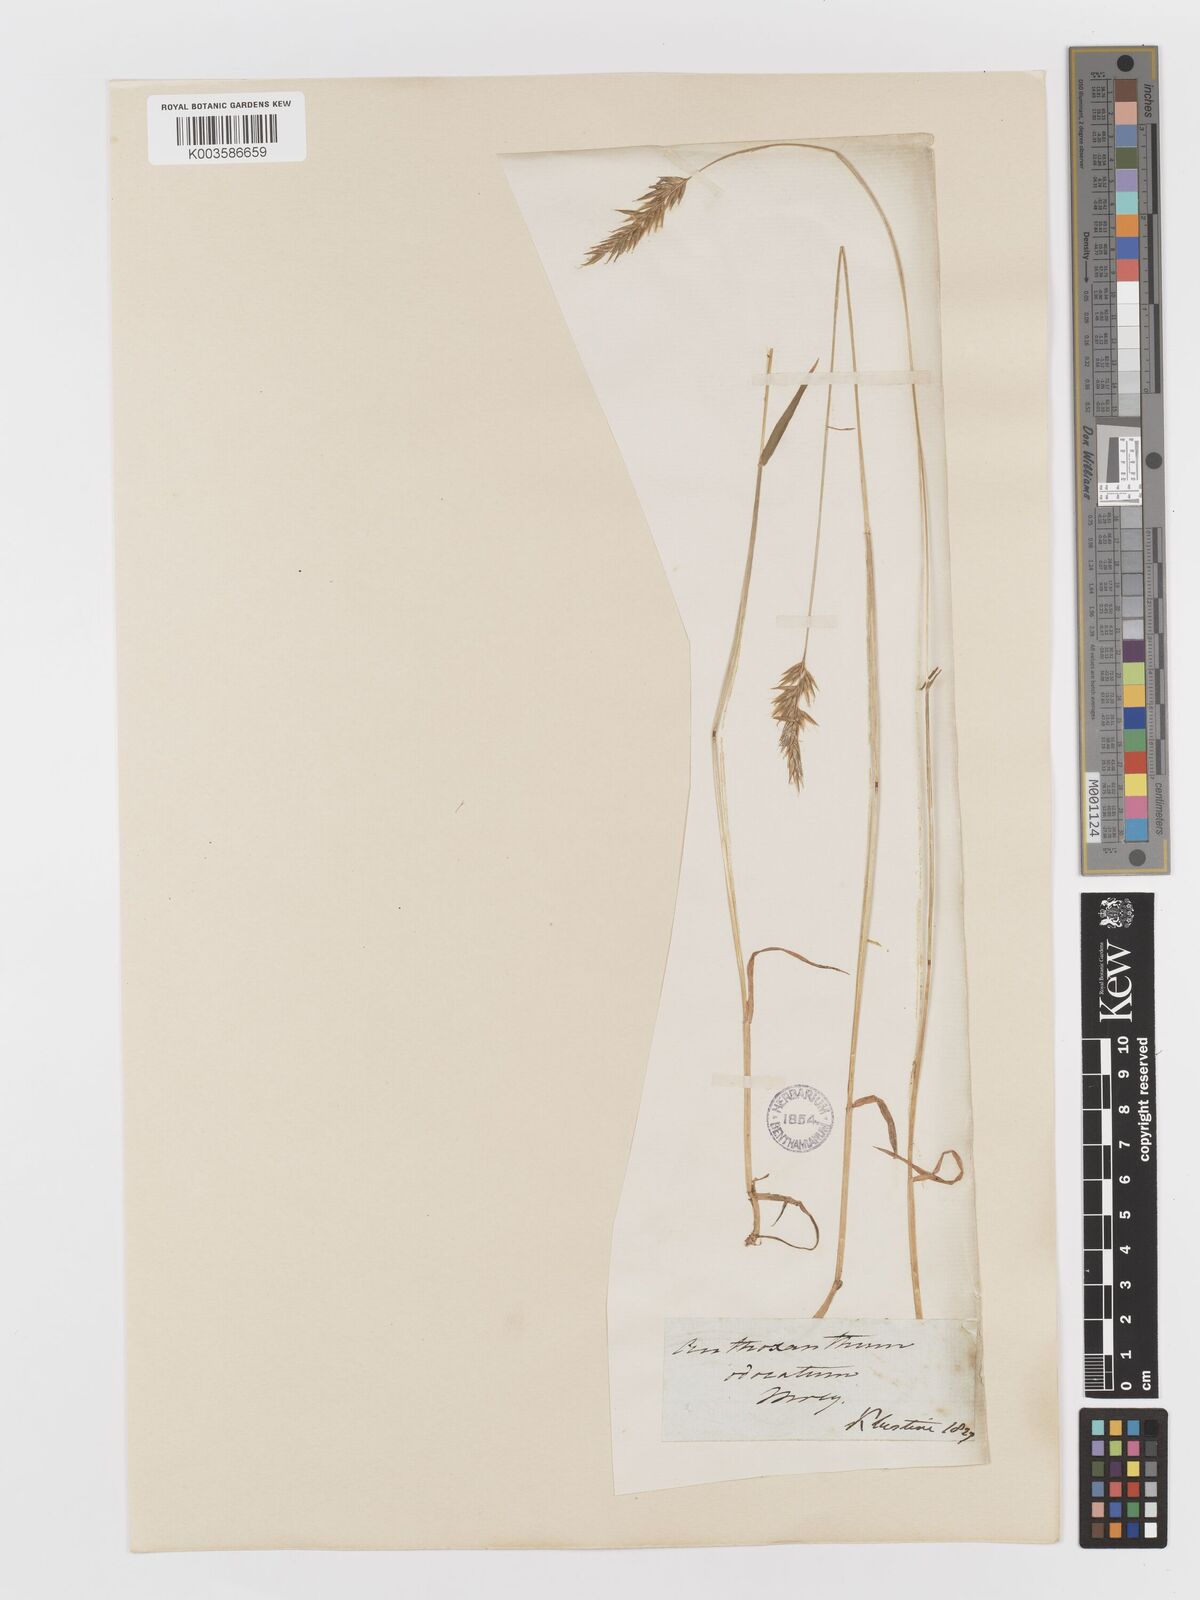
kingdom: Plantae
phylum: Tracheophyta
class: Liliopsida
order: Poales
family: Poaceae
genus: Anthoxanthum
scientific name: Anthoxanthum odoratum
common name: Sweet vernalgrass
